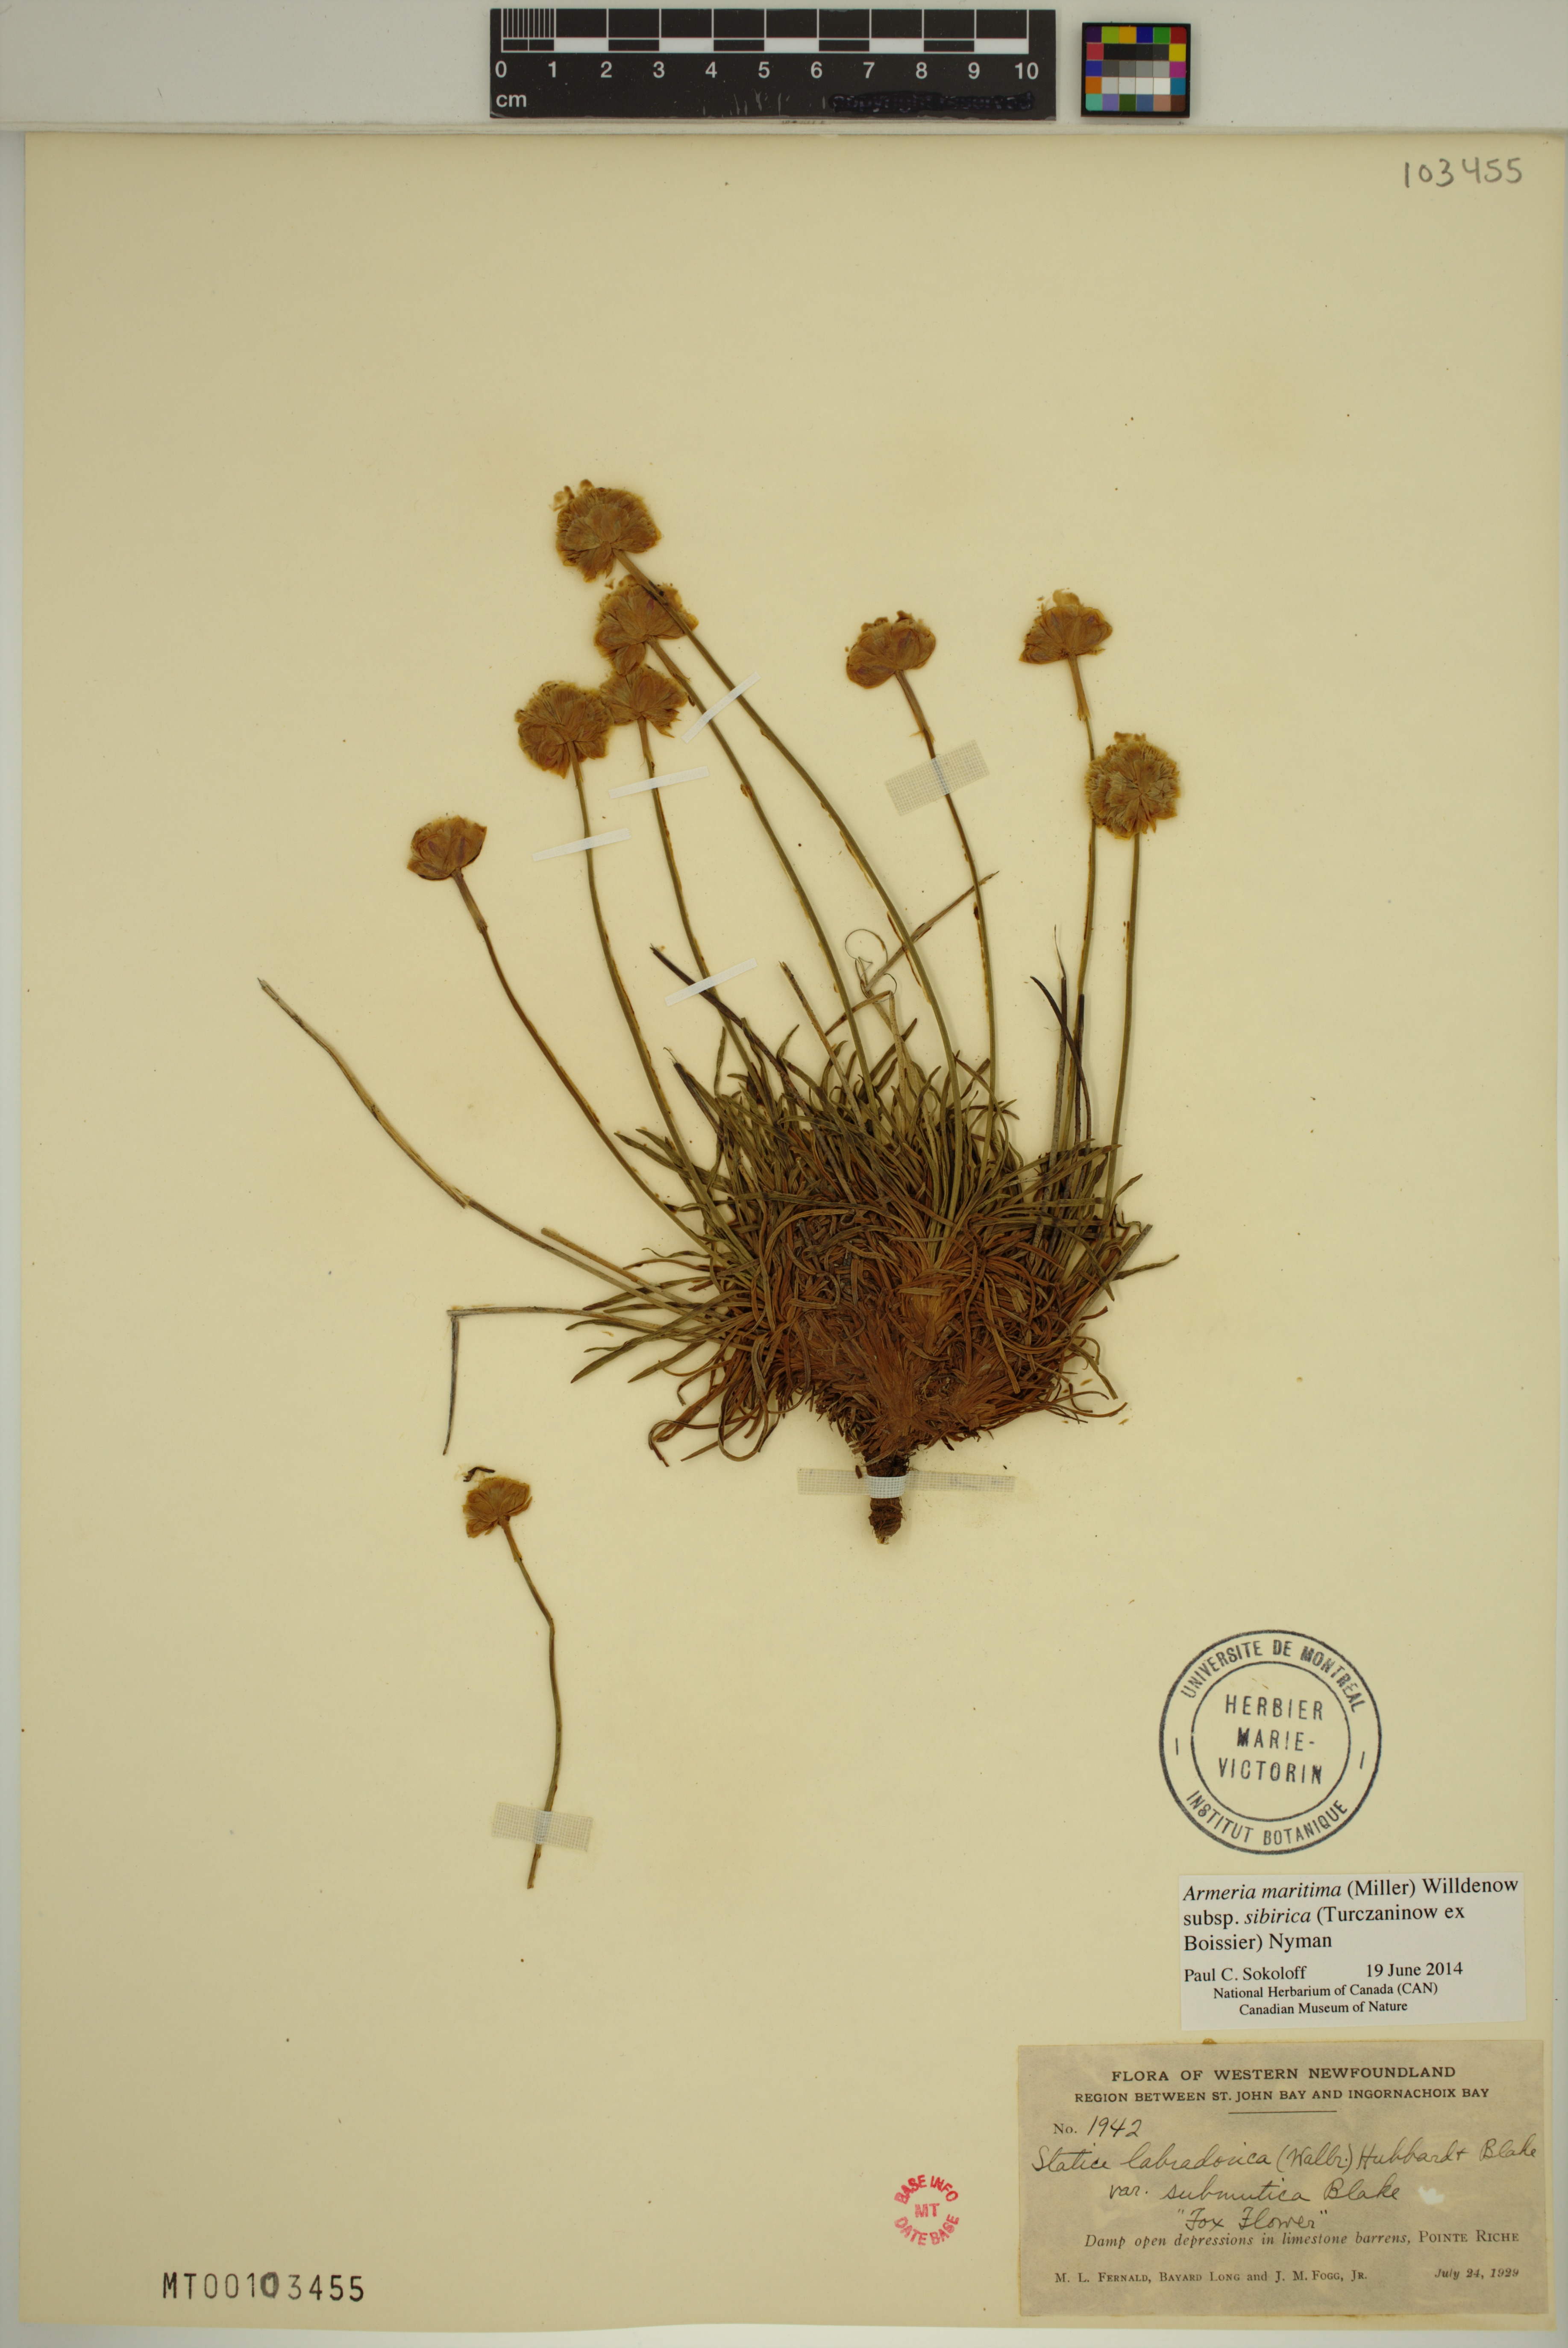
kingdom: Plantae
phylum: Tracheophyta
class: Magnoliopsida
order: Caryophyllales
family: Plumbaginaceae
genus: Armeria
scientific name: Armeria maritima
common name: Thrift
